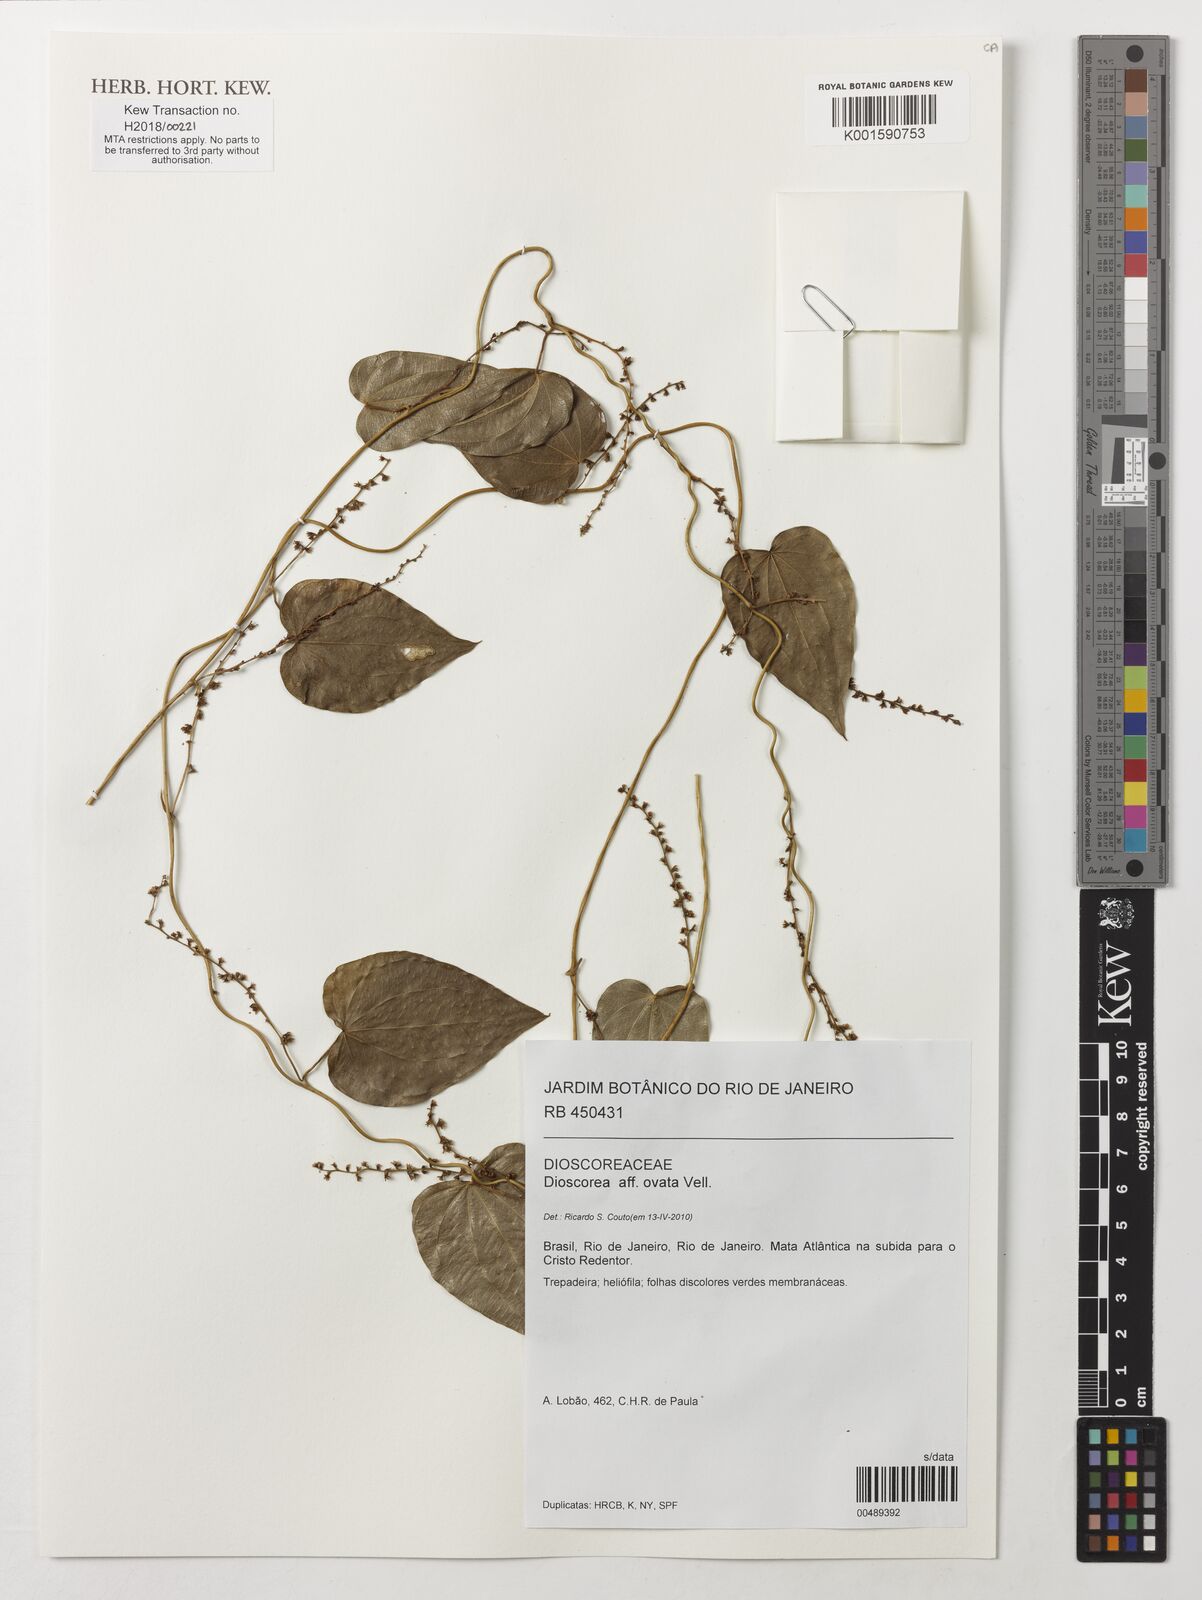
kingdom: Plantae
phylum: Tracheophyta
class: Liliopsida
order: Dioscoreales
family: Dioscoreaceae
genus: Dioscorea
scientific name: Dioscorea ovata
